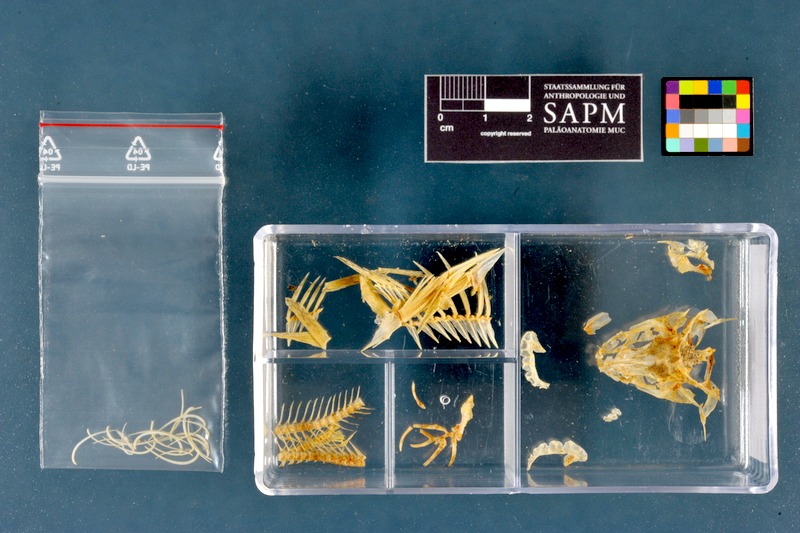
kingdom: Animalia
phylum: Chordata
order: Perciformes
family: Percidae
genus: Gymnocephalus
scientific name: Gymnocephalus cernua
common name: Ruffe
